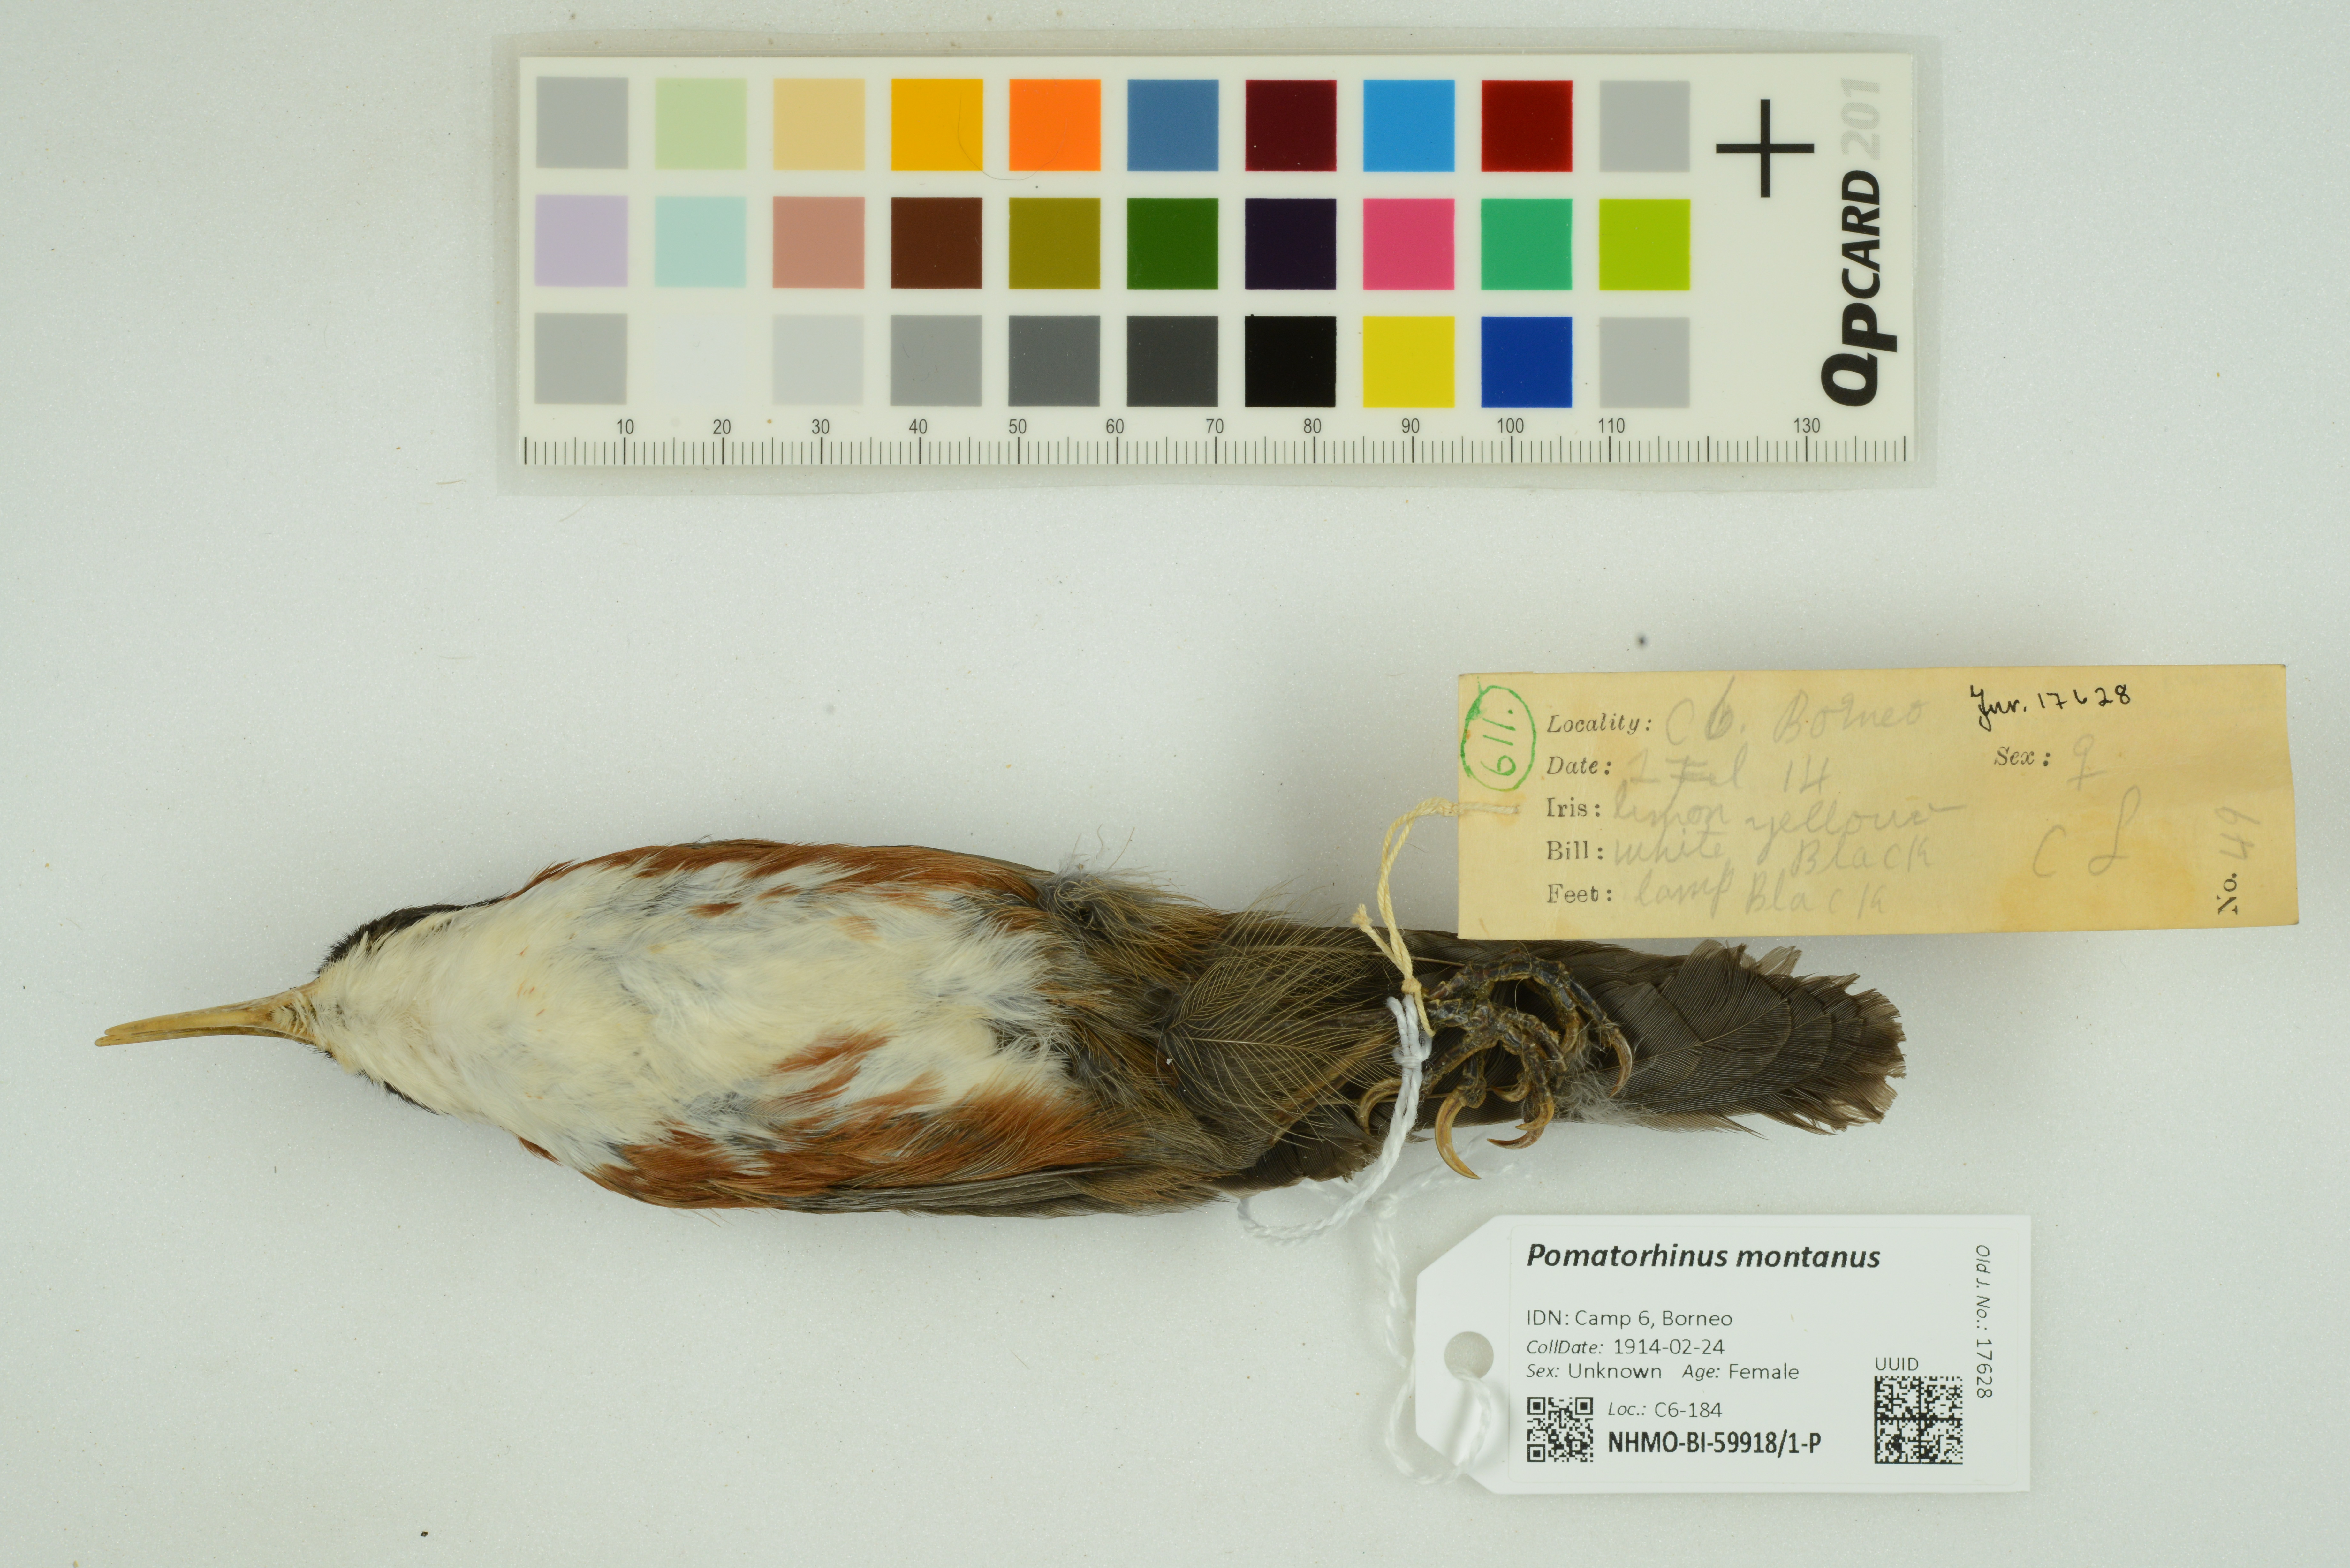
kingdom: Animalia
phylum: Chordata
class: Aves
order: Passeriformes
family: Timaliidae
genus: Pomatorhinus
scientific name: Pomatorhinus montanus
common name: Chestnut-backed scimitar babbler
